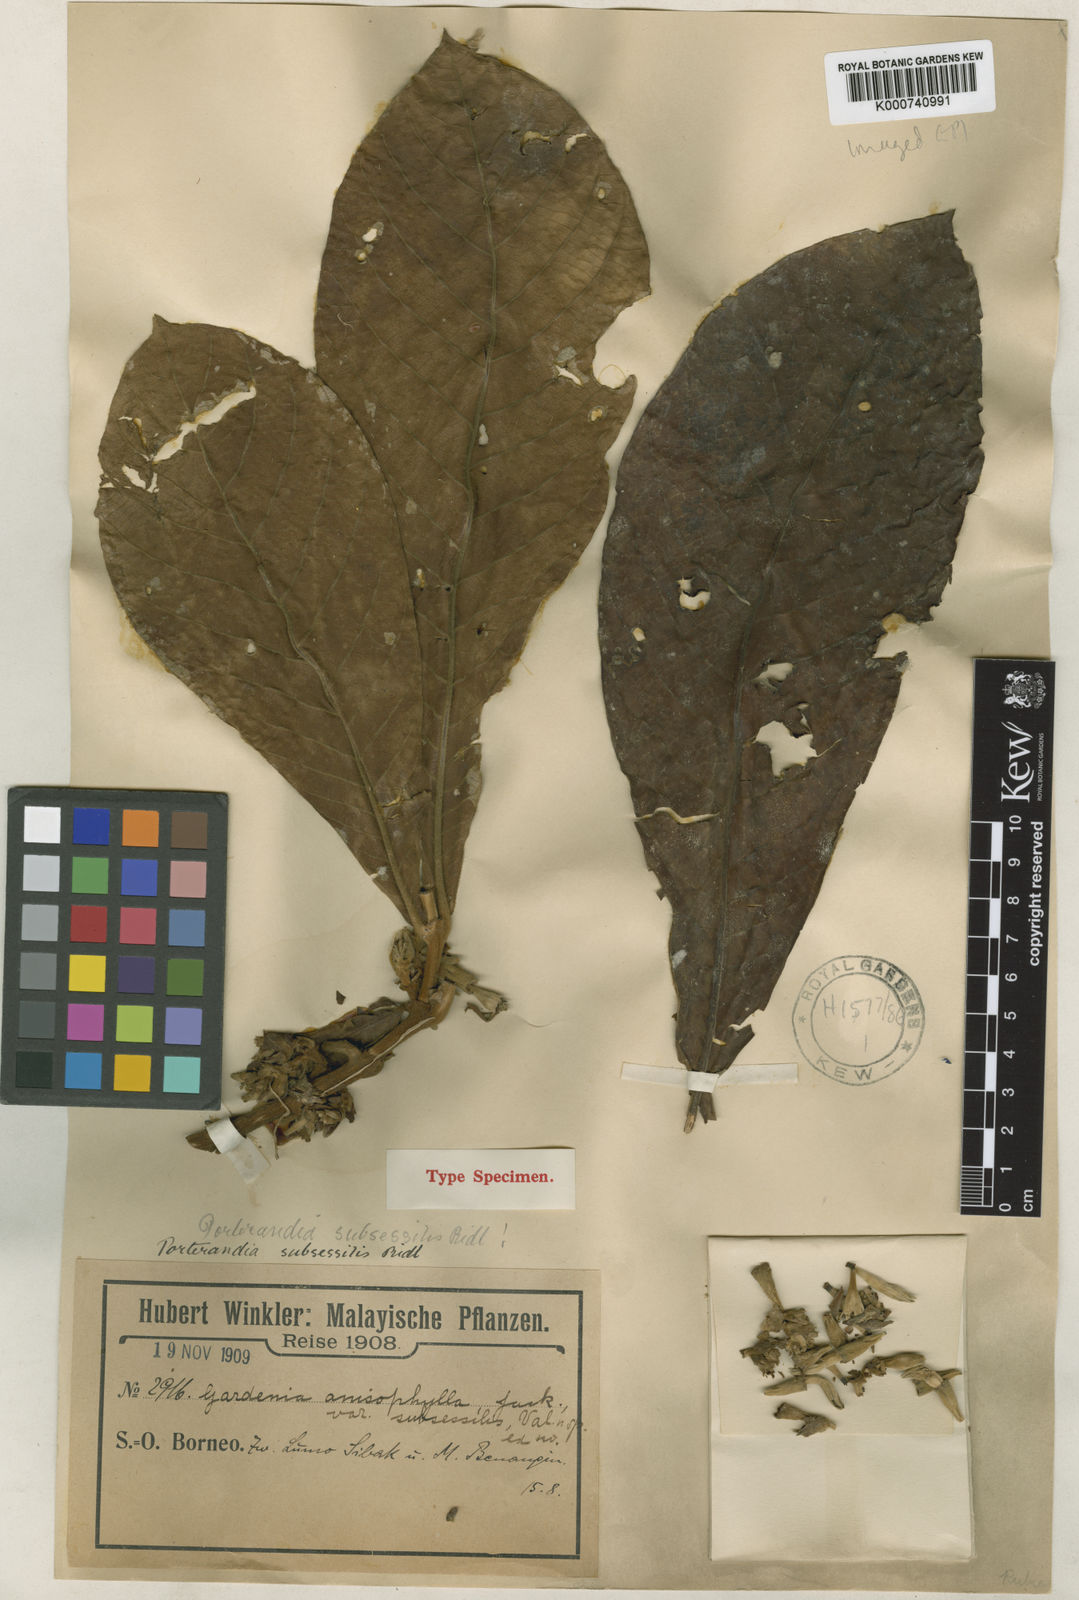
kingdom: Plantae
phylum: Tracheophyta
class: Magnoliopsida
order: Gentianales
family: Rubiaceae
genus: Porterandia
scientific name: Porterandia subsessilis
